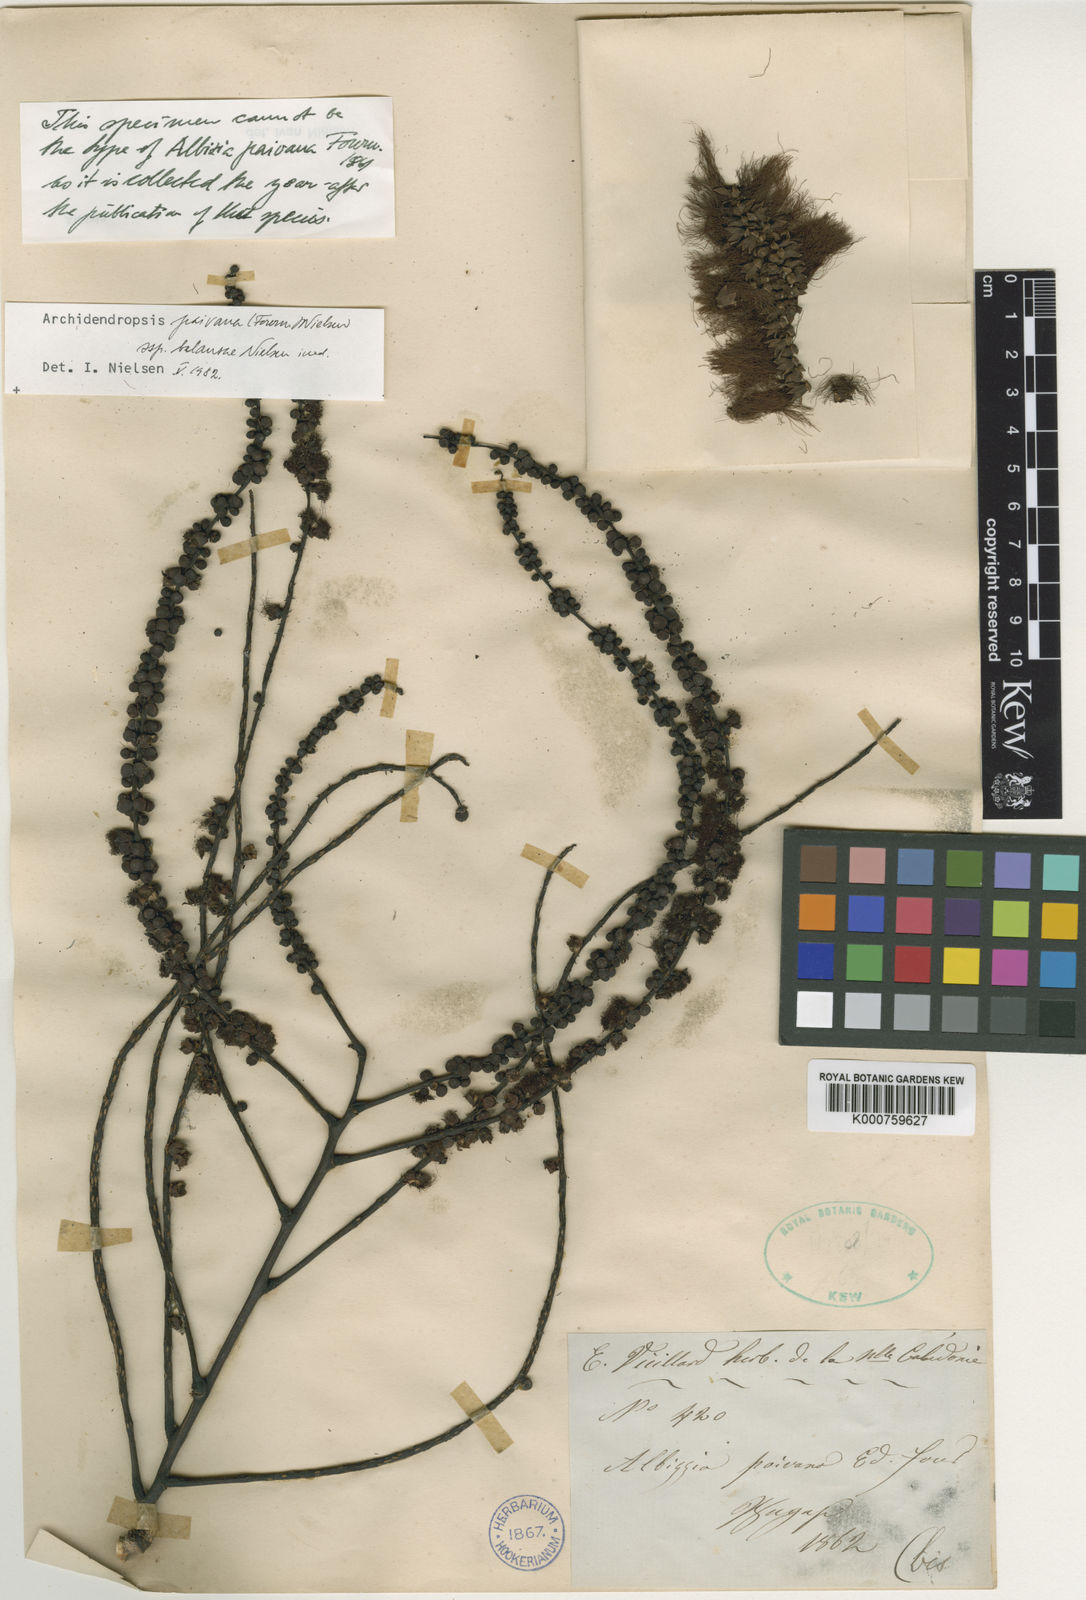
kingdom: Plantae
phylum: Tracheophyta
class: Magnoliopsida
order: Fabales
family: Fabaceae
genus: Archidendropsis
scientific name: Archidendropsis paivana
